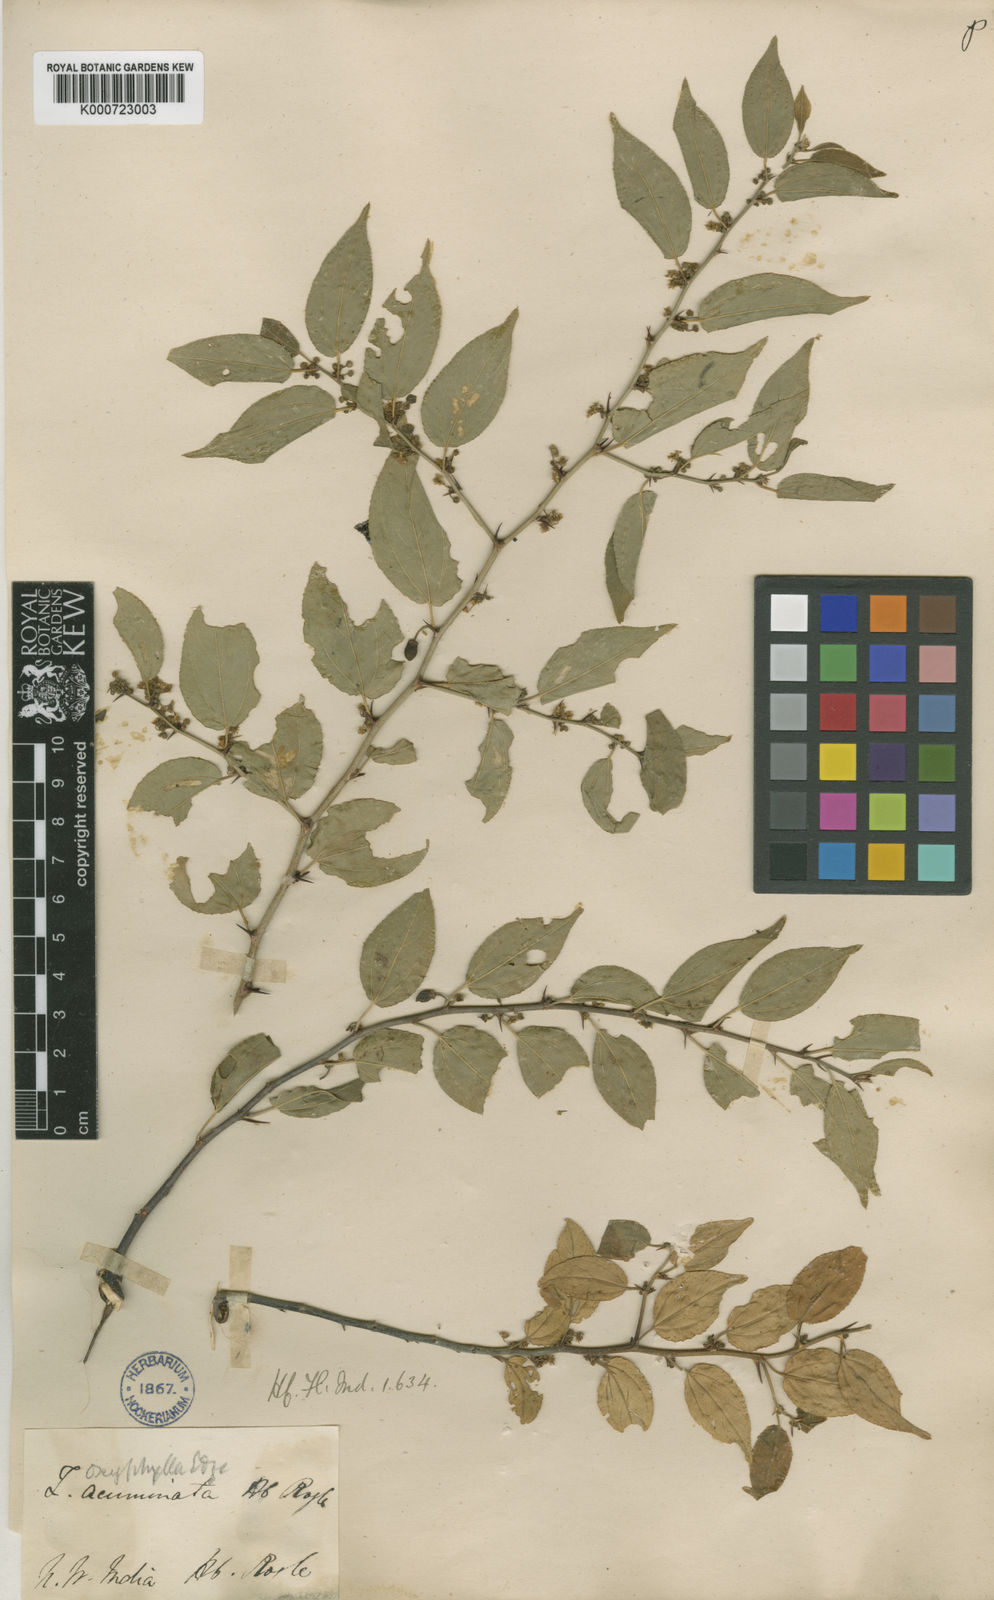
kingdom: Plantae
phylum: Tracheophyta
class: Magnoliopsida
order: Rosales
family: Rhamnaceae
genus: Ziziphus
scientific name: Ziziphus oxyphylla
